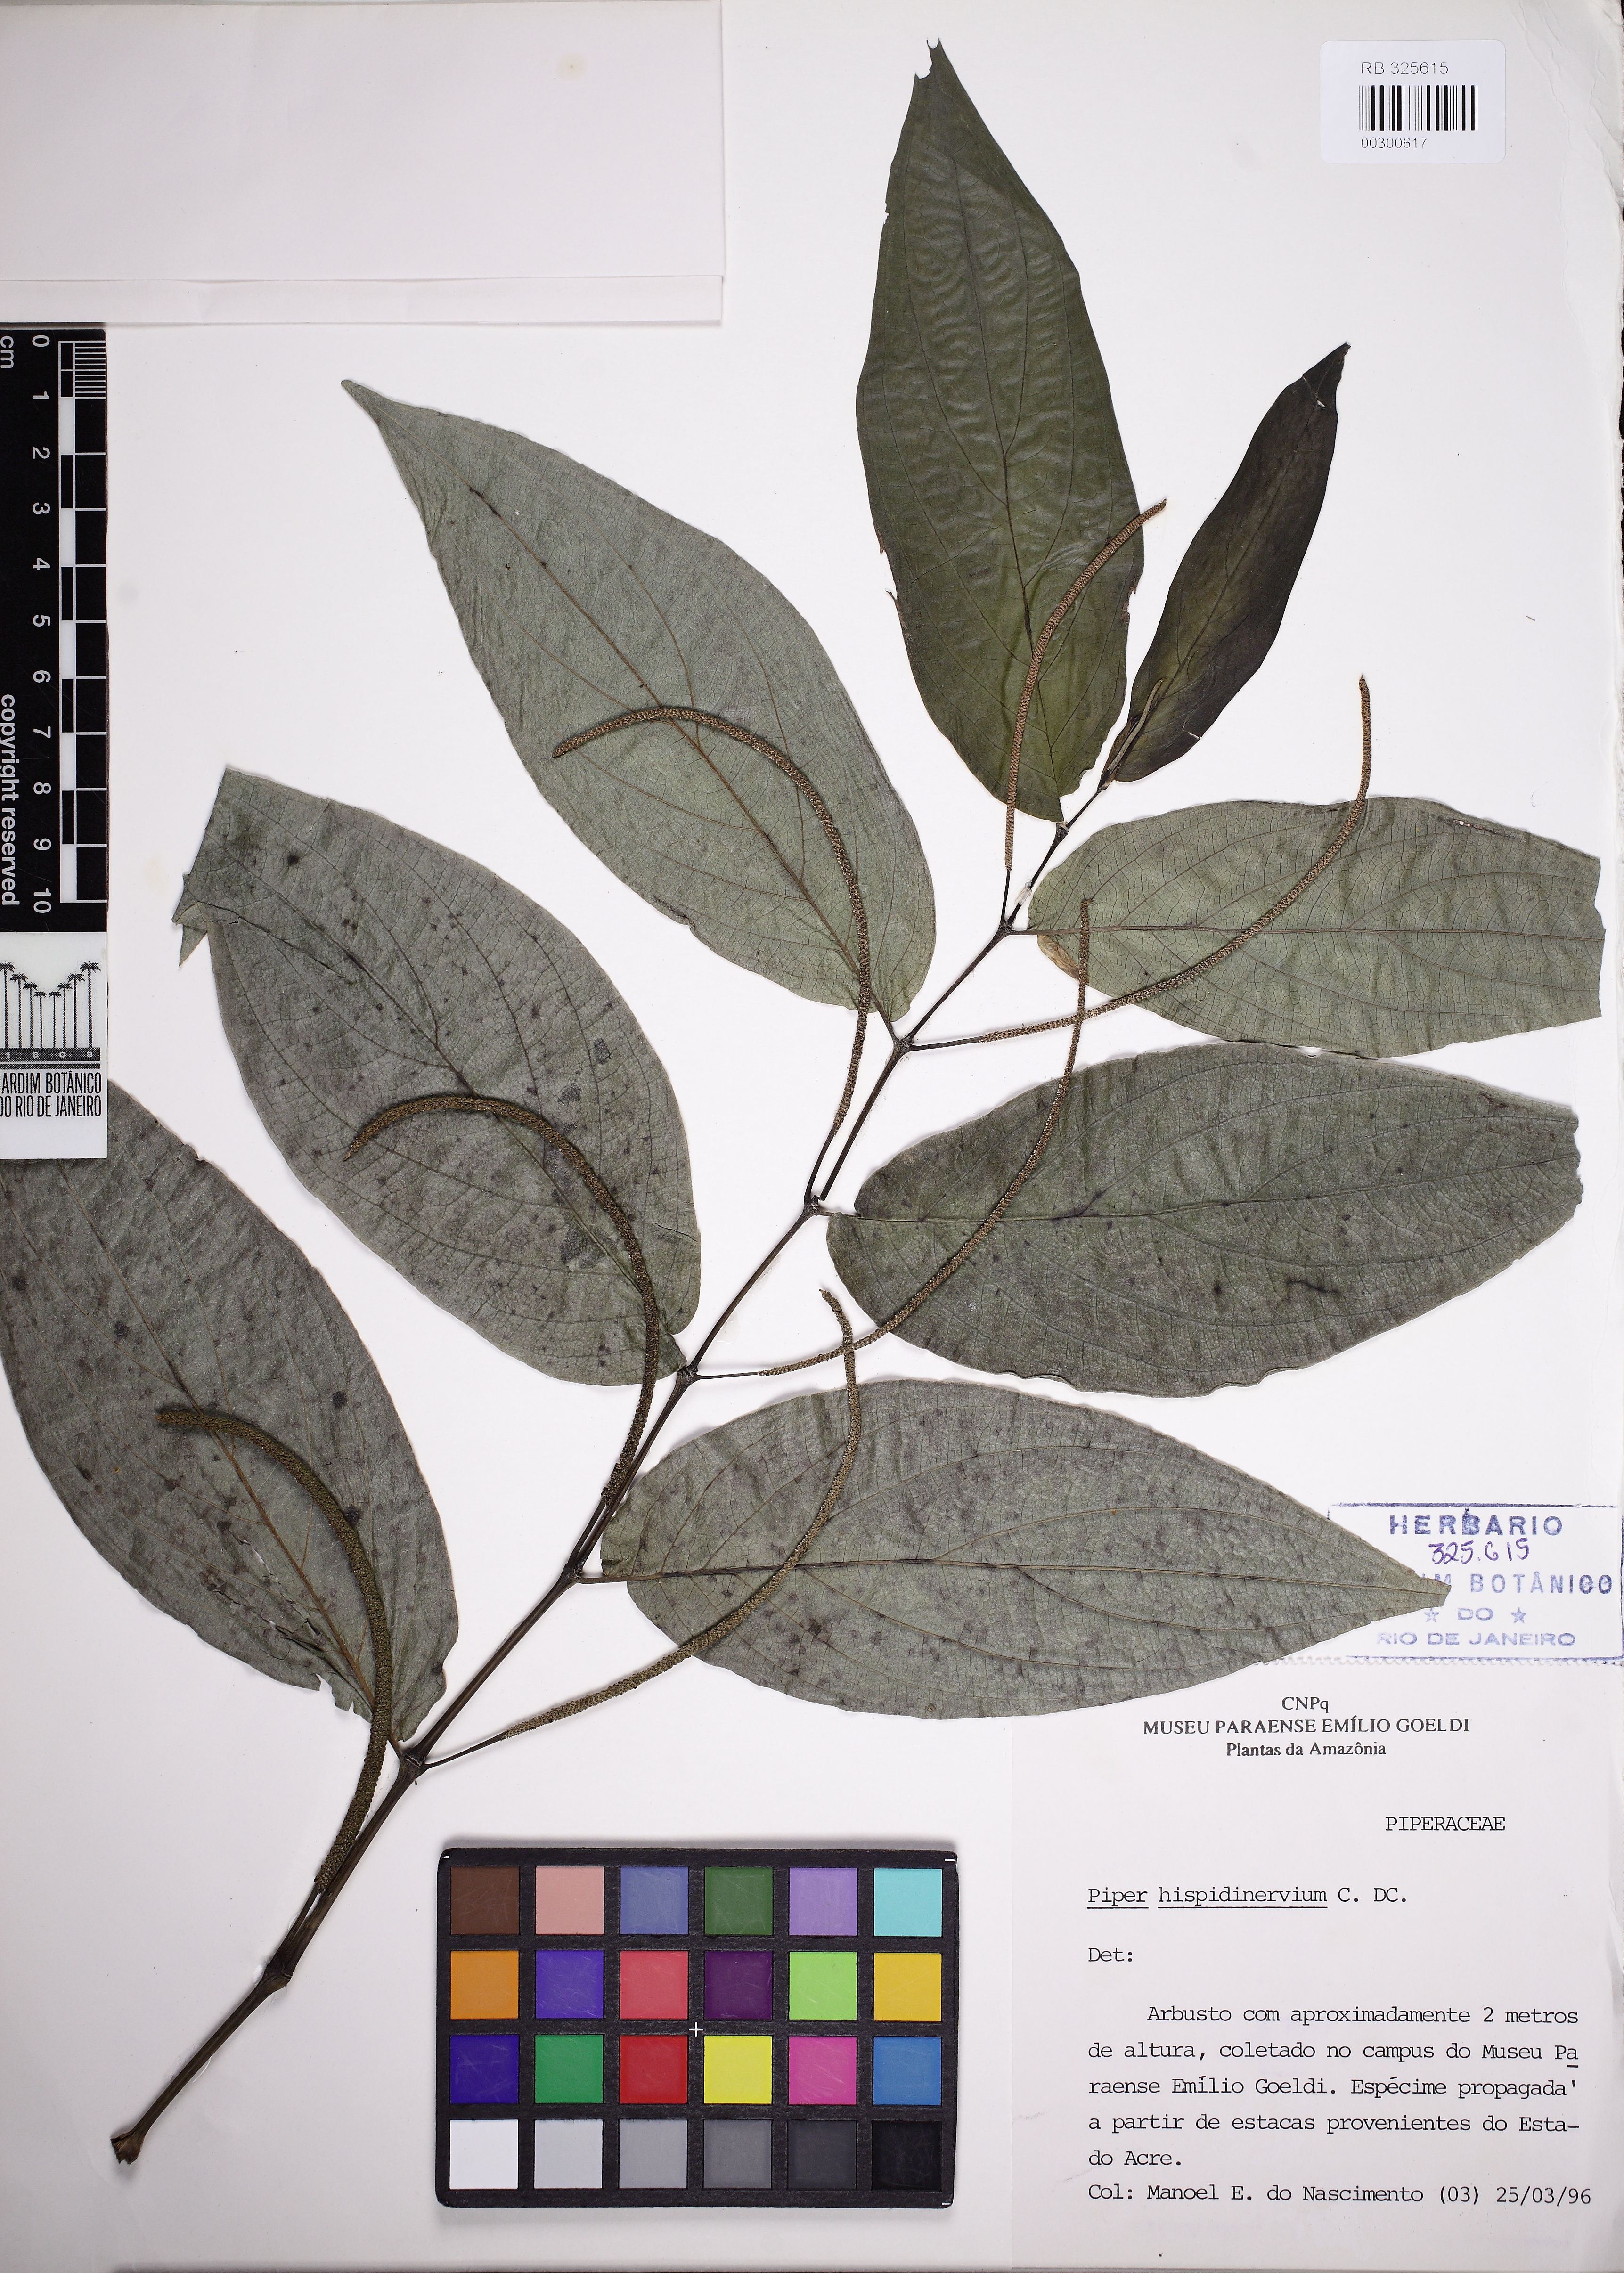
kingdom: Plantae
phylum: Tracheophyta
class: Magnoliopsida
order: Piperales
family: Piperaceae
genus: Piper
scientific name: Piper hispidinervum
